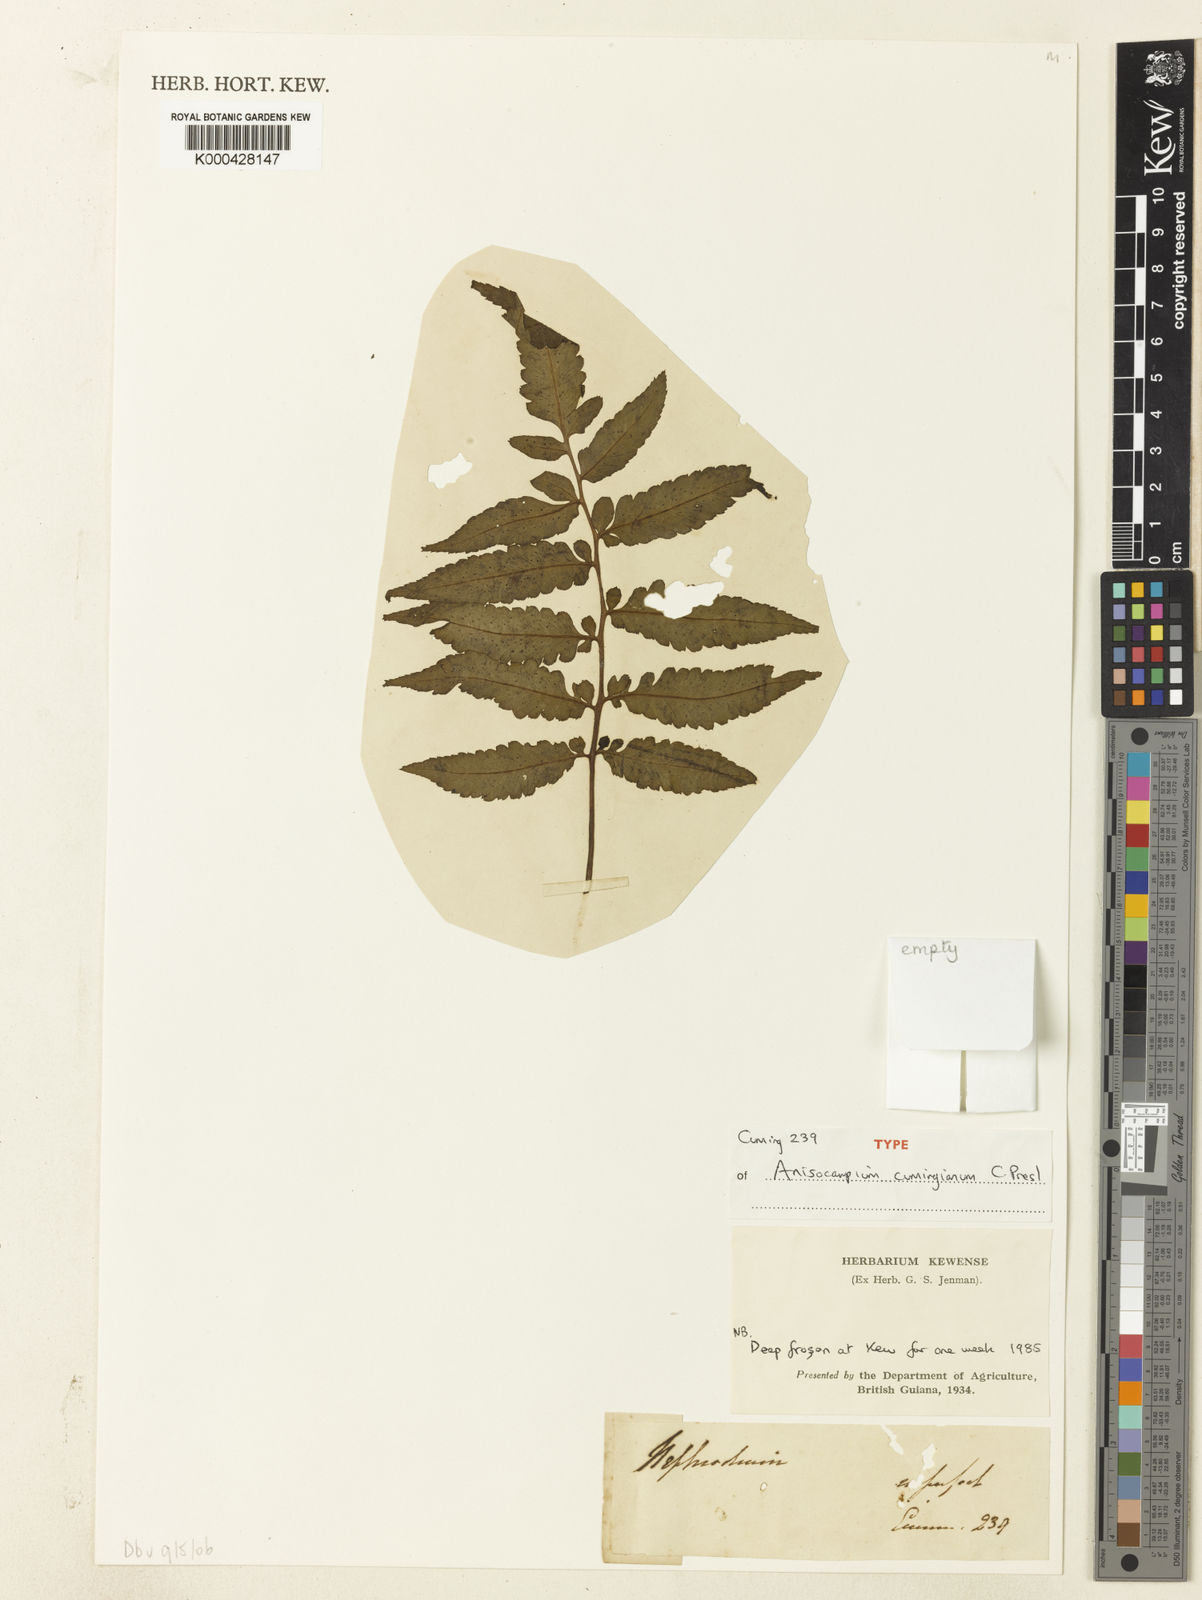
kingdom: Plantae
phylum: Tracheophyta
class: Polypodiopsida
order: Polypodiales
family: Athyriaceae
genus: Anisocampium
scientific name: Anisocampium cumingianum
